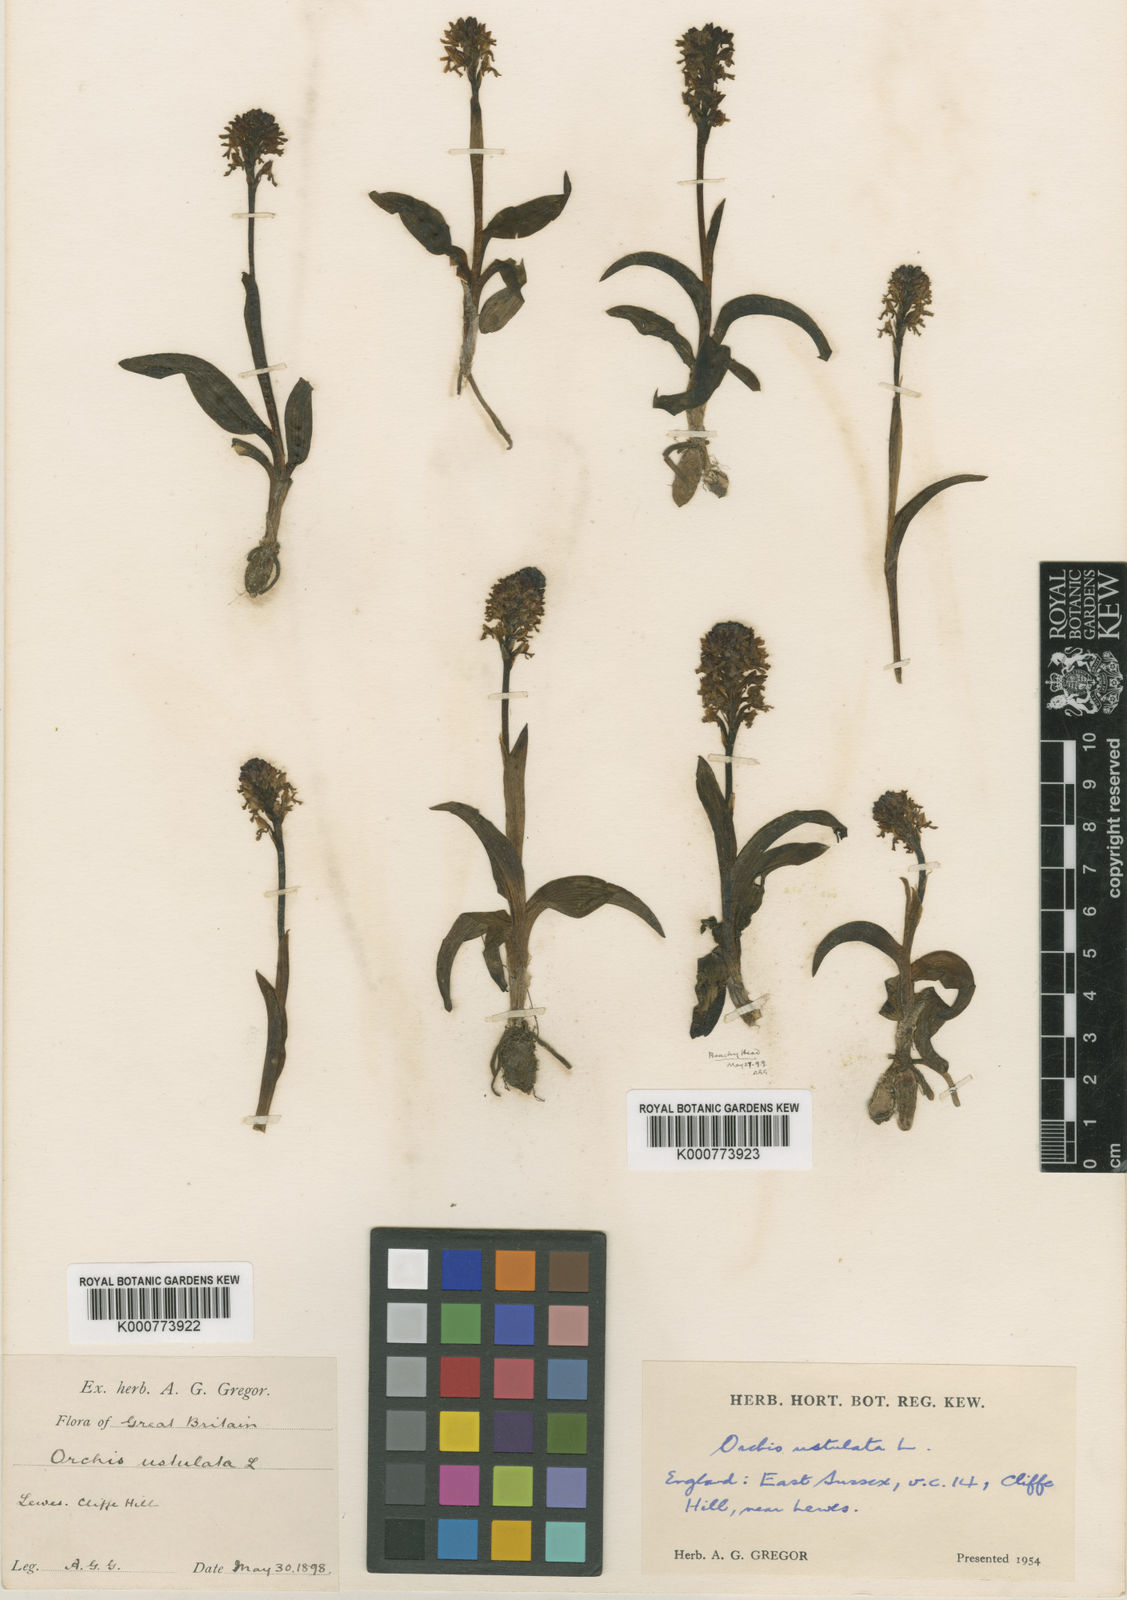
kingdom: Plantae
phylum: Tracheophyta
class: Liliopsida
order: Asparagales
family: Orchidaceae
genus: Neotinea
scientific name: Neotinea ustulata
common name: Burnt orchid
